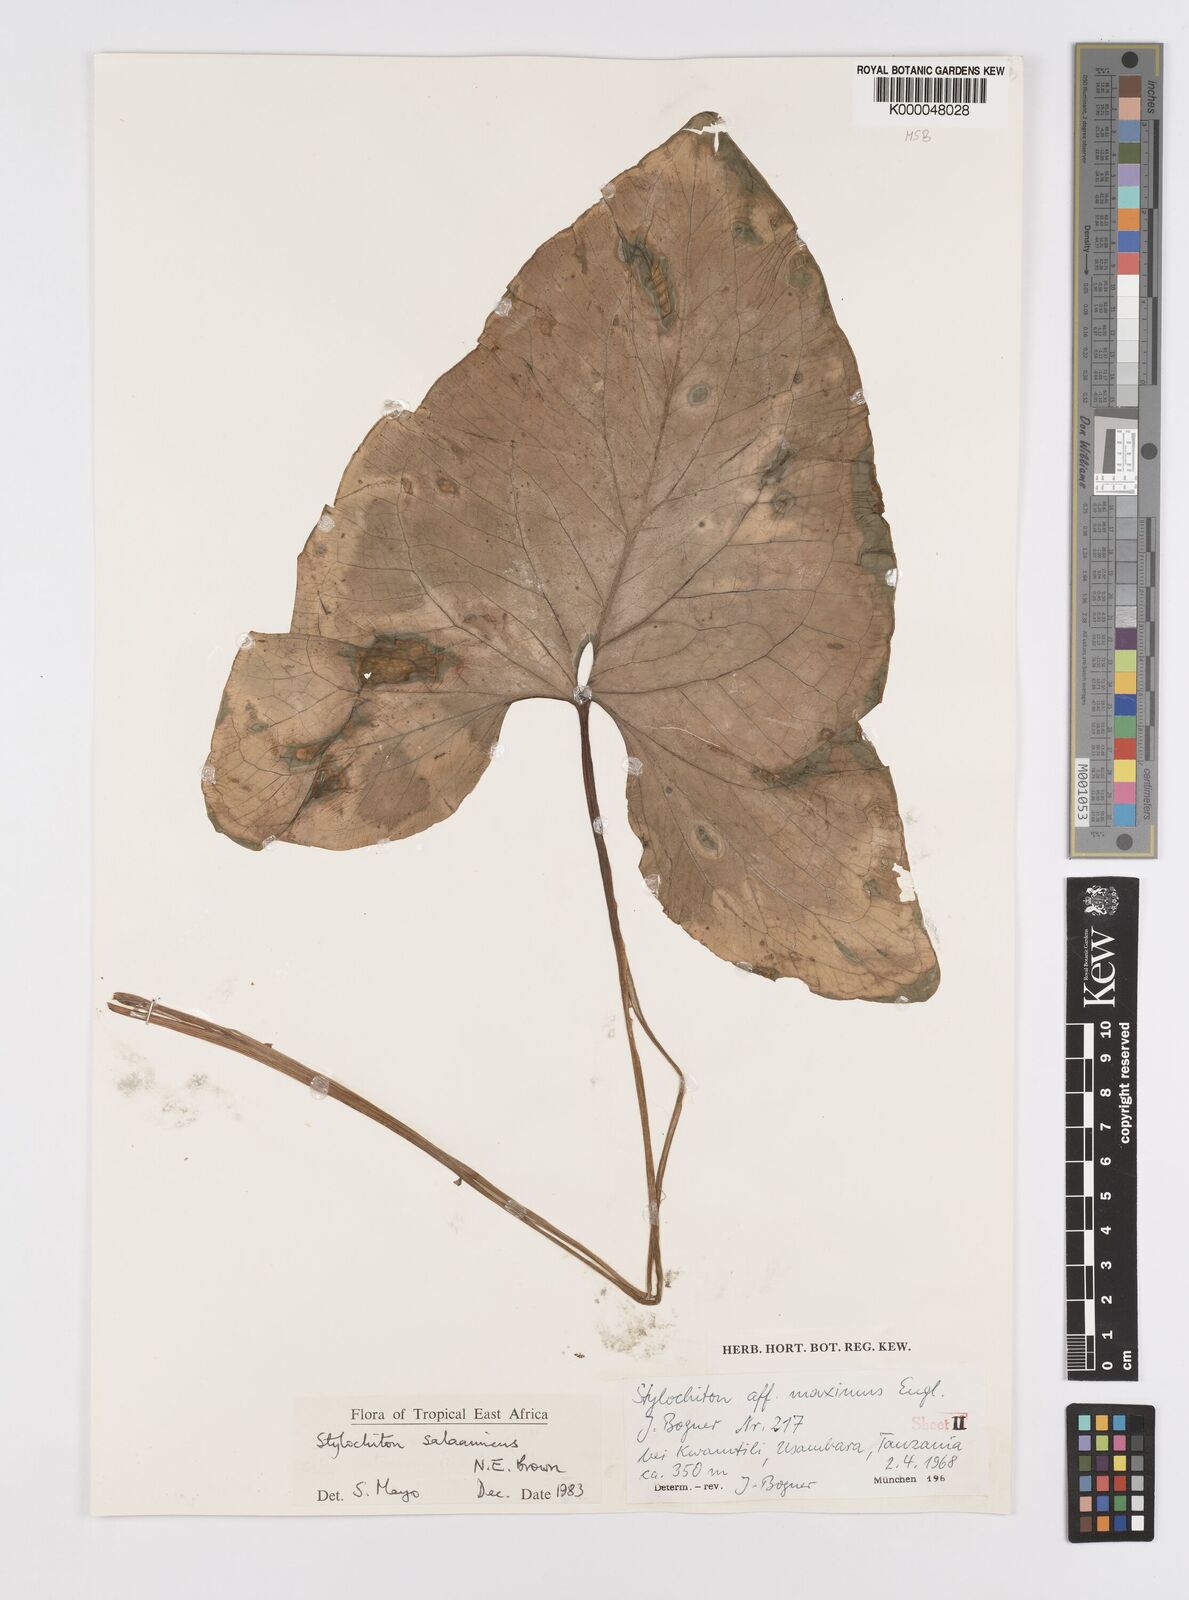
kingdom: Plantae
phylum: Tracheophyta
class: Liliopsida
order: Alismatales
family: Araceae
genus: Stylochaeton
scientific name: Stylochaeton salaamicum
